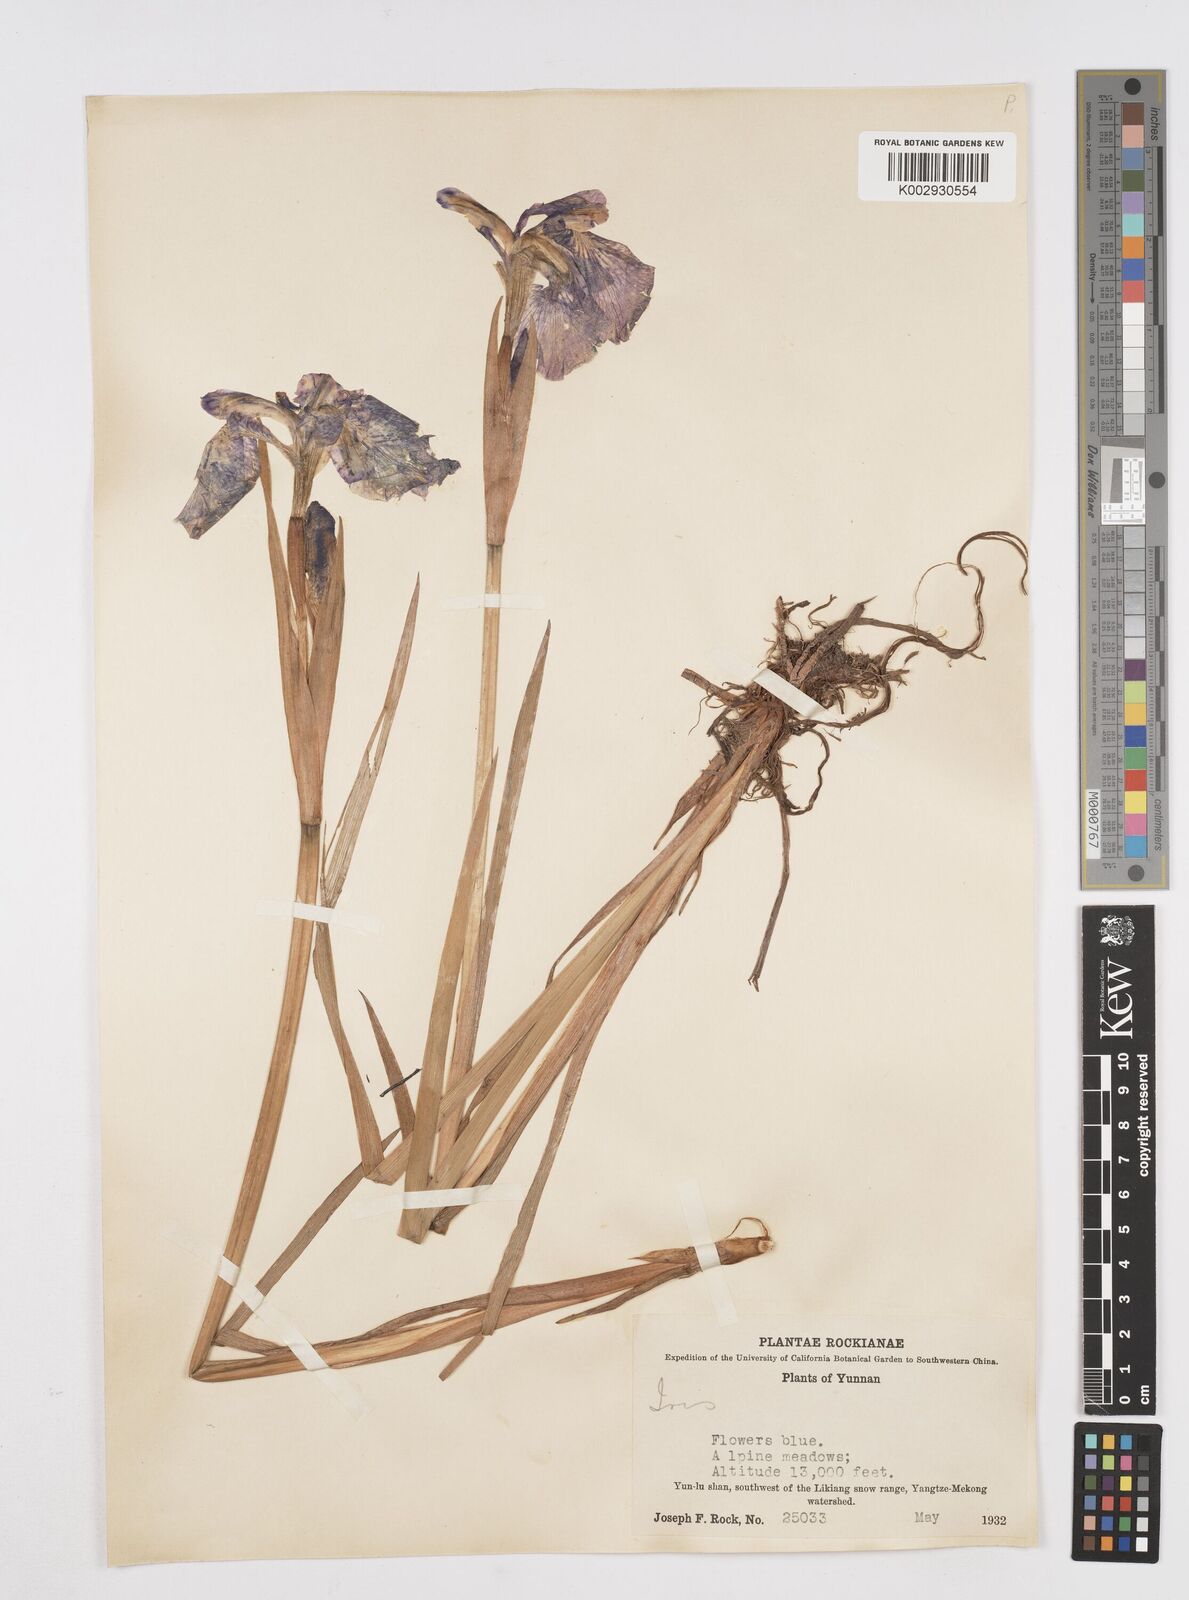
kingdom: Plantae
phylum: Tracheophyta
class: Liliopsida
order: Asparagales
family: Iridaceae
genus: Iris
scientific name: Iris bulleyana
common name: Southwest iris
